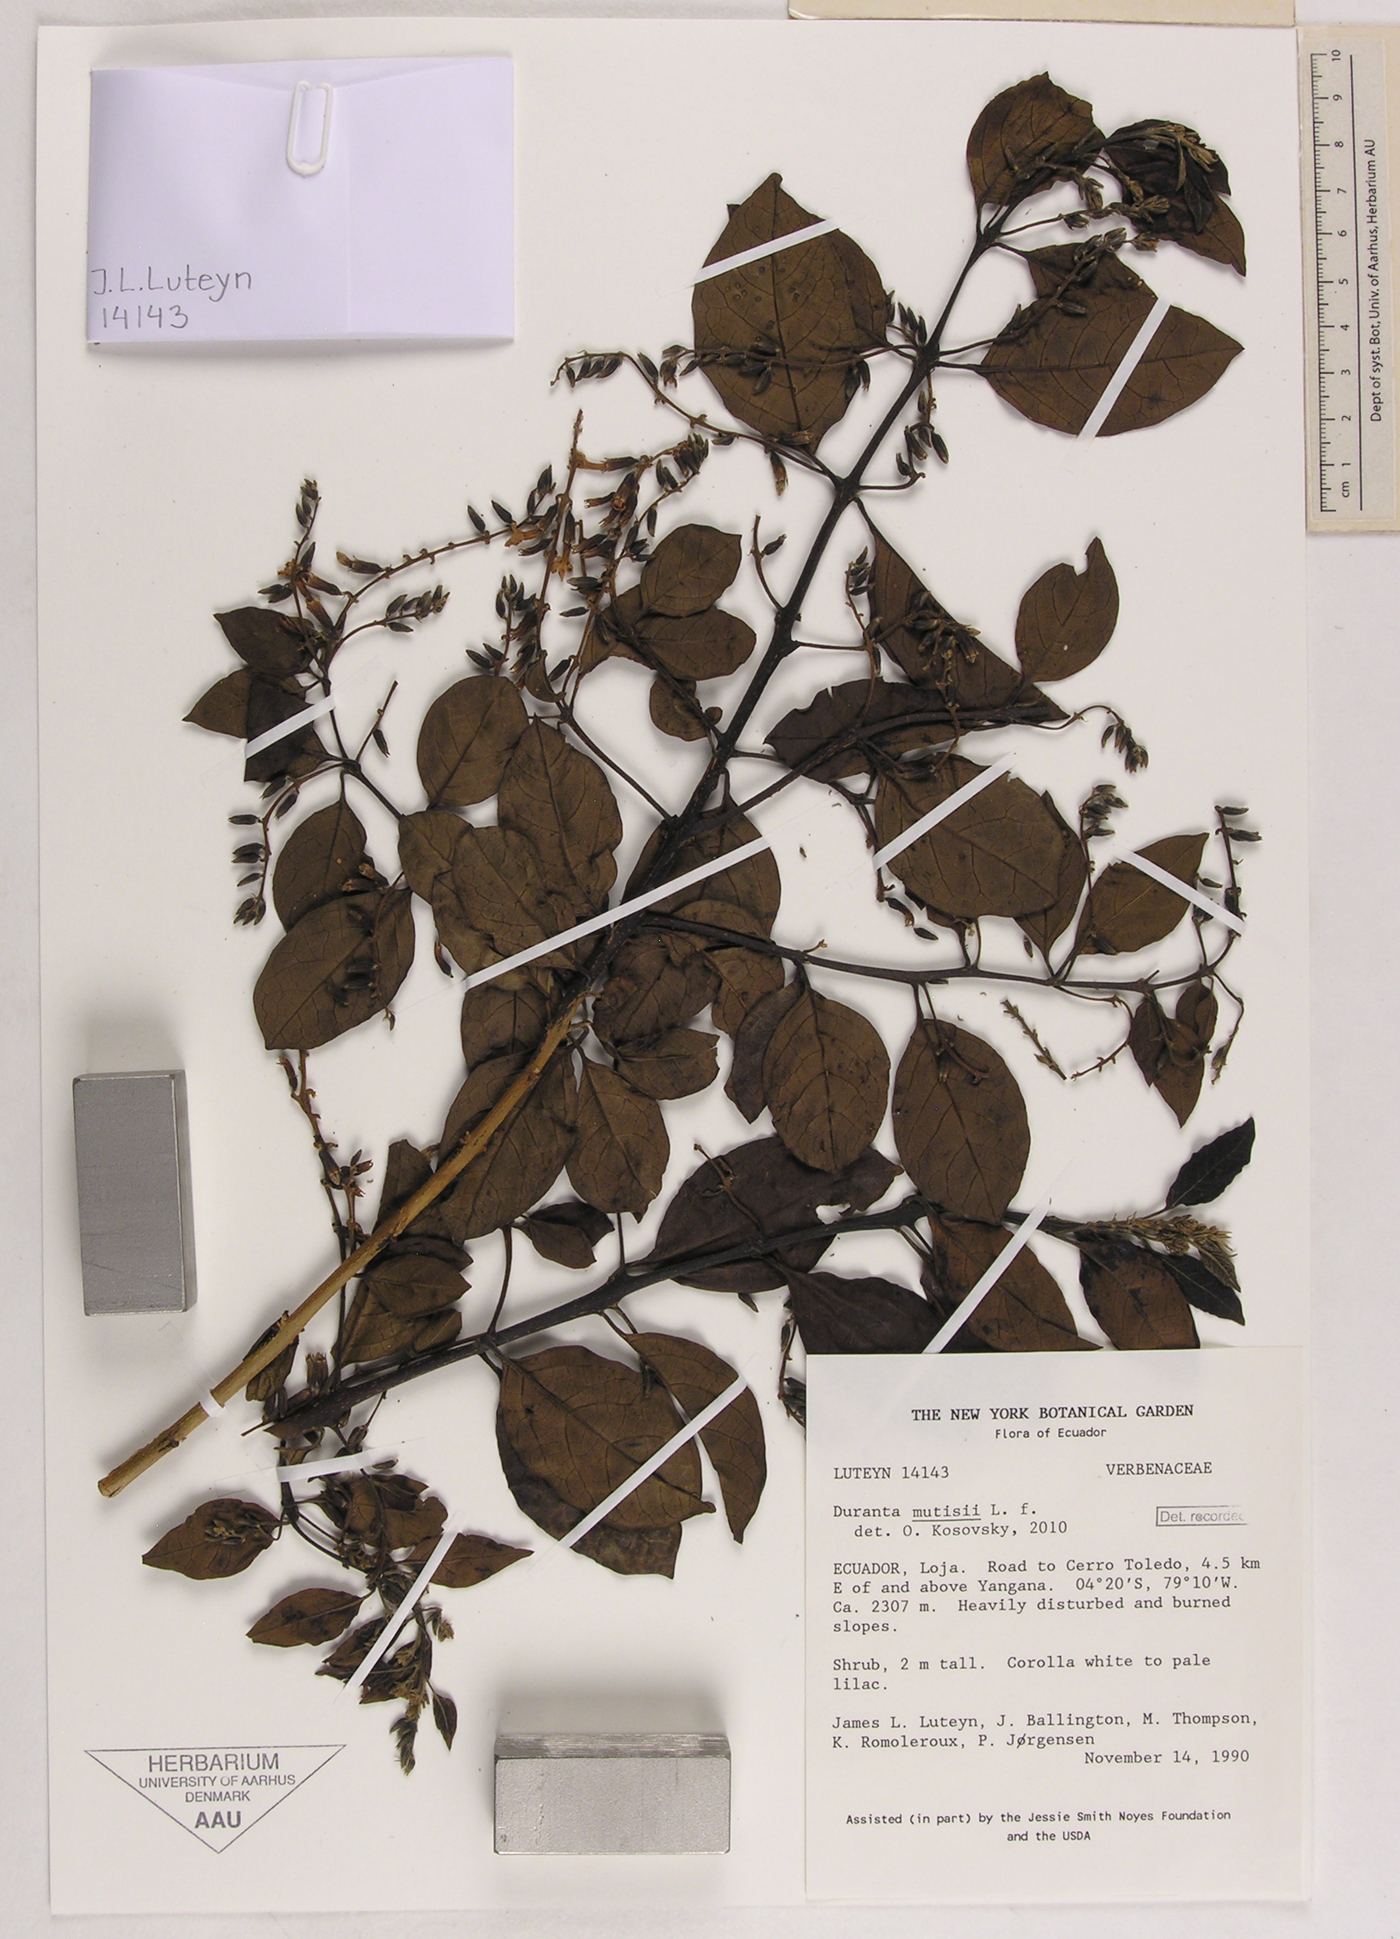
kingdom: Plantae
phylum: Tracheophyta
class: Magnoliopsida
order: Lamiales
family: Verbenaceae
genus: Duranta
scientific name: Duranta mutisii
